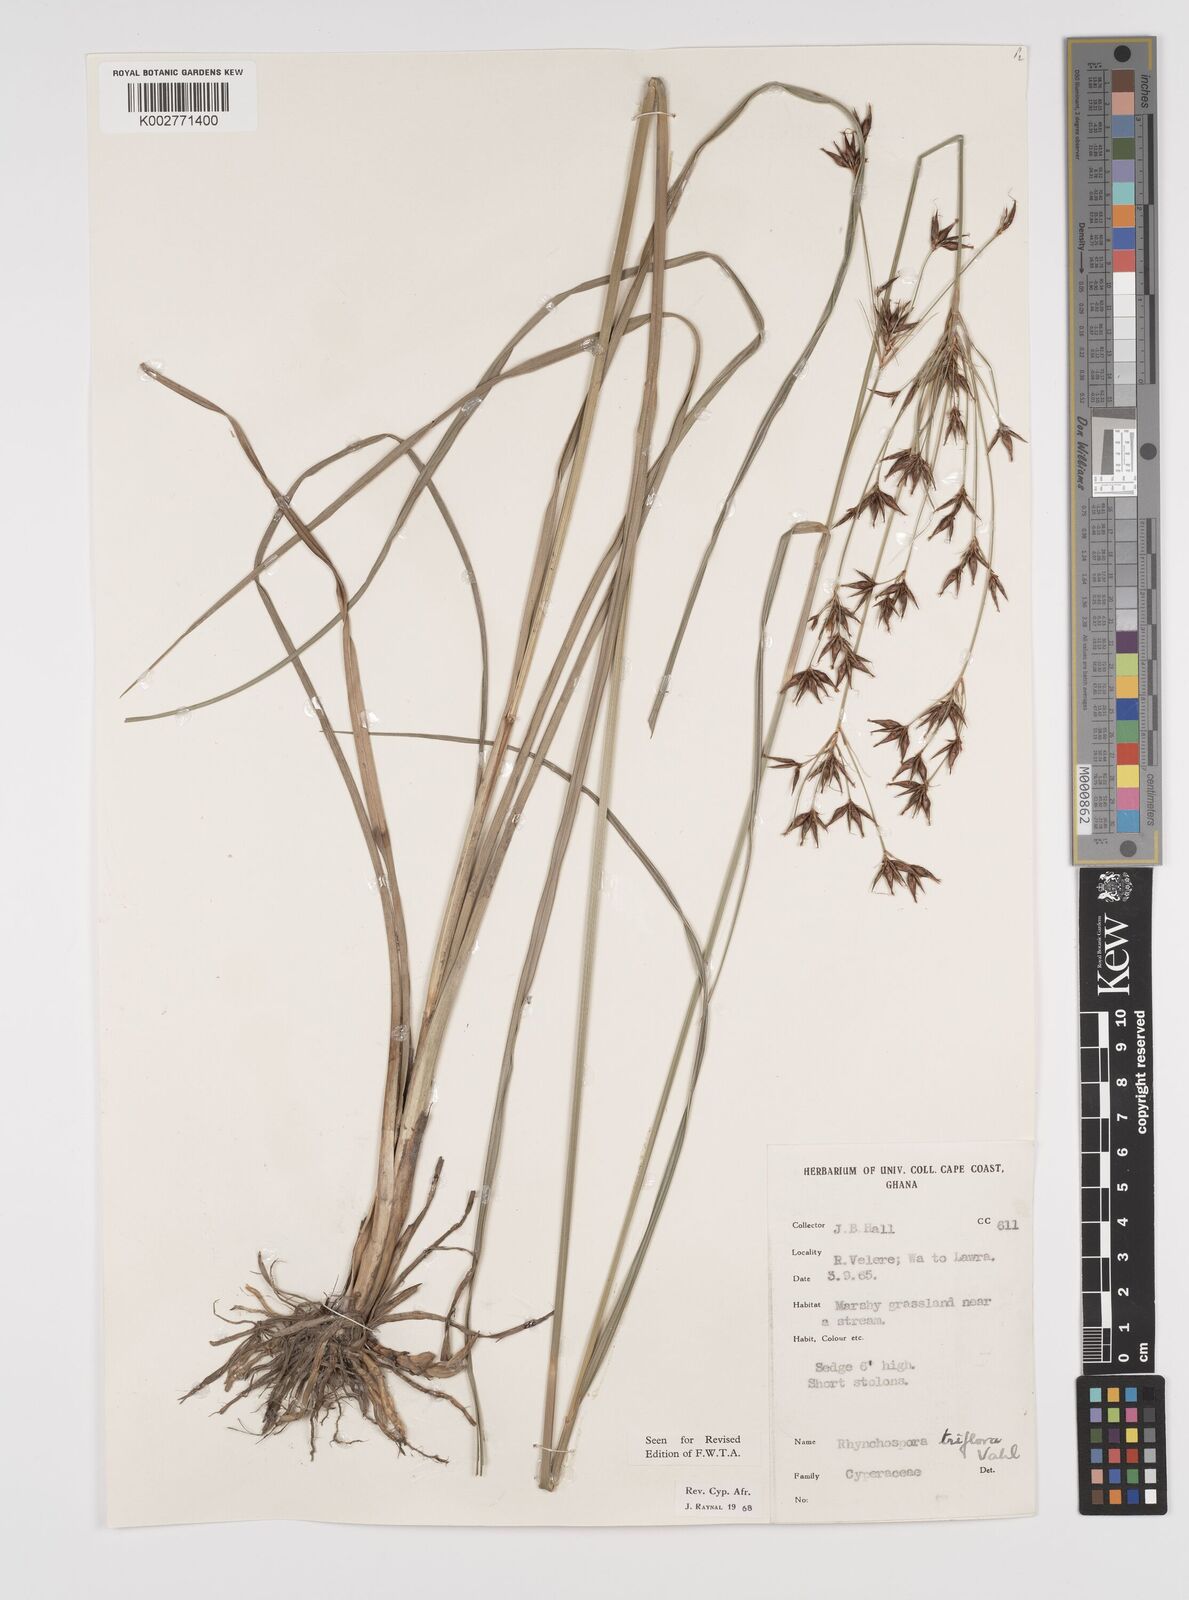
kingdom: Plantae
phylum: Tracheophyta
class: Liliopsida
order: Poales
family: Cyperaceae
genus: Rhynchospora
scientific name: Rhynchospora triflora
